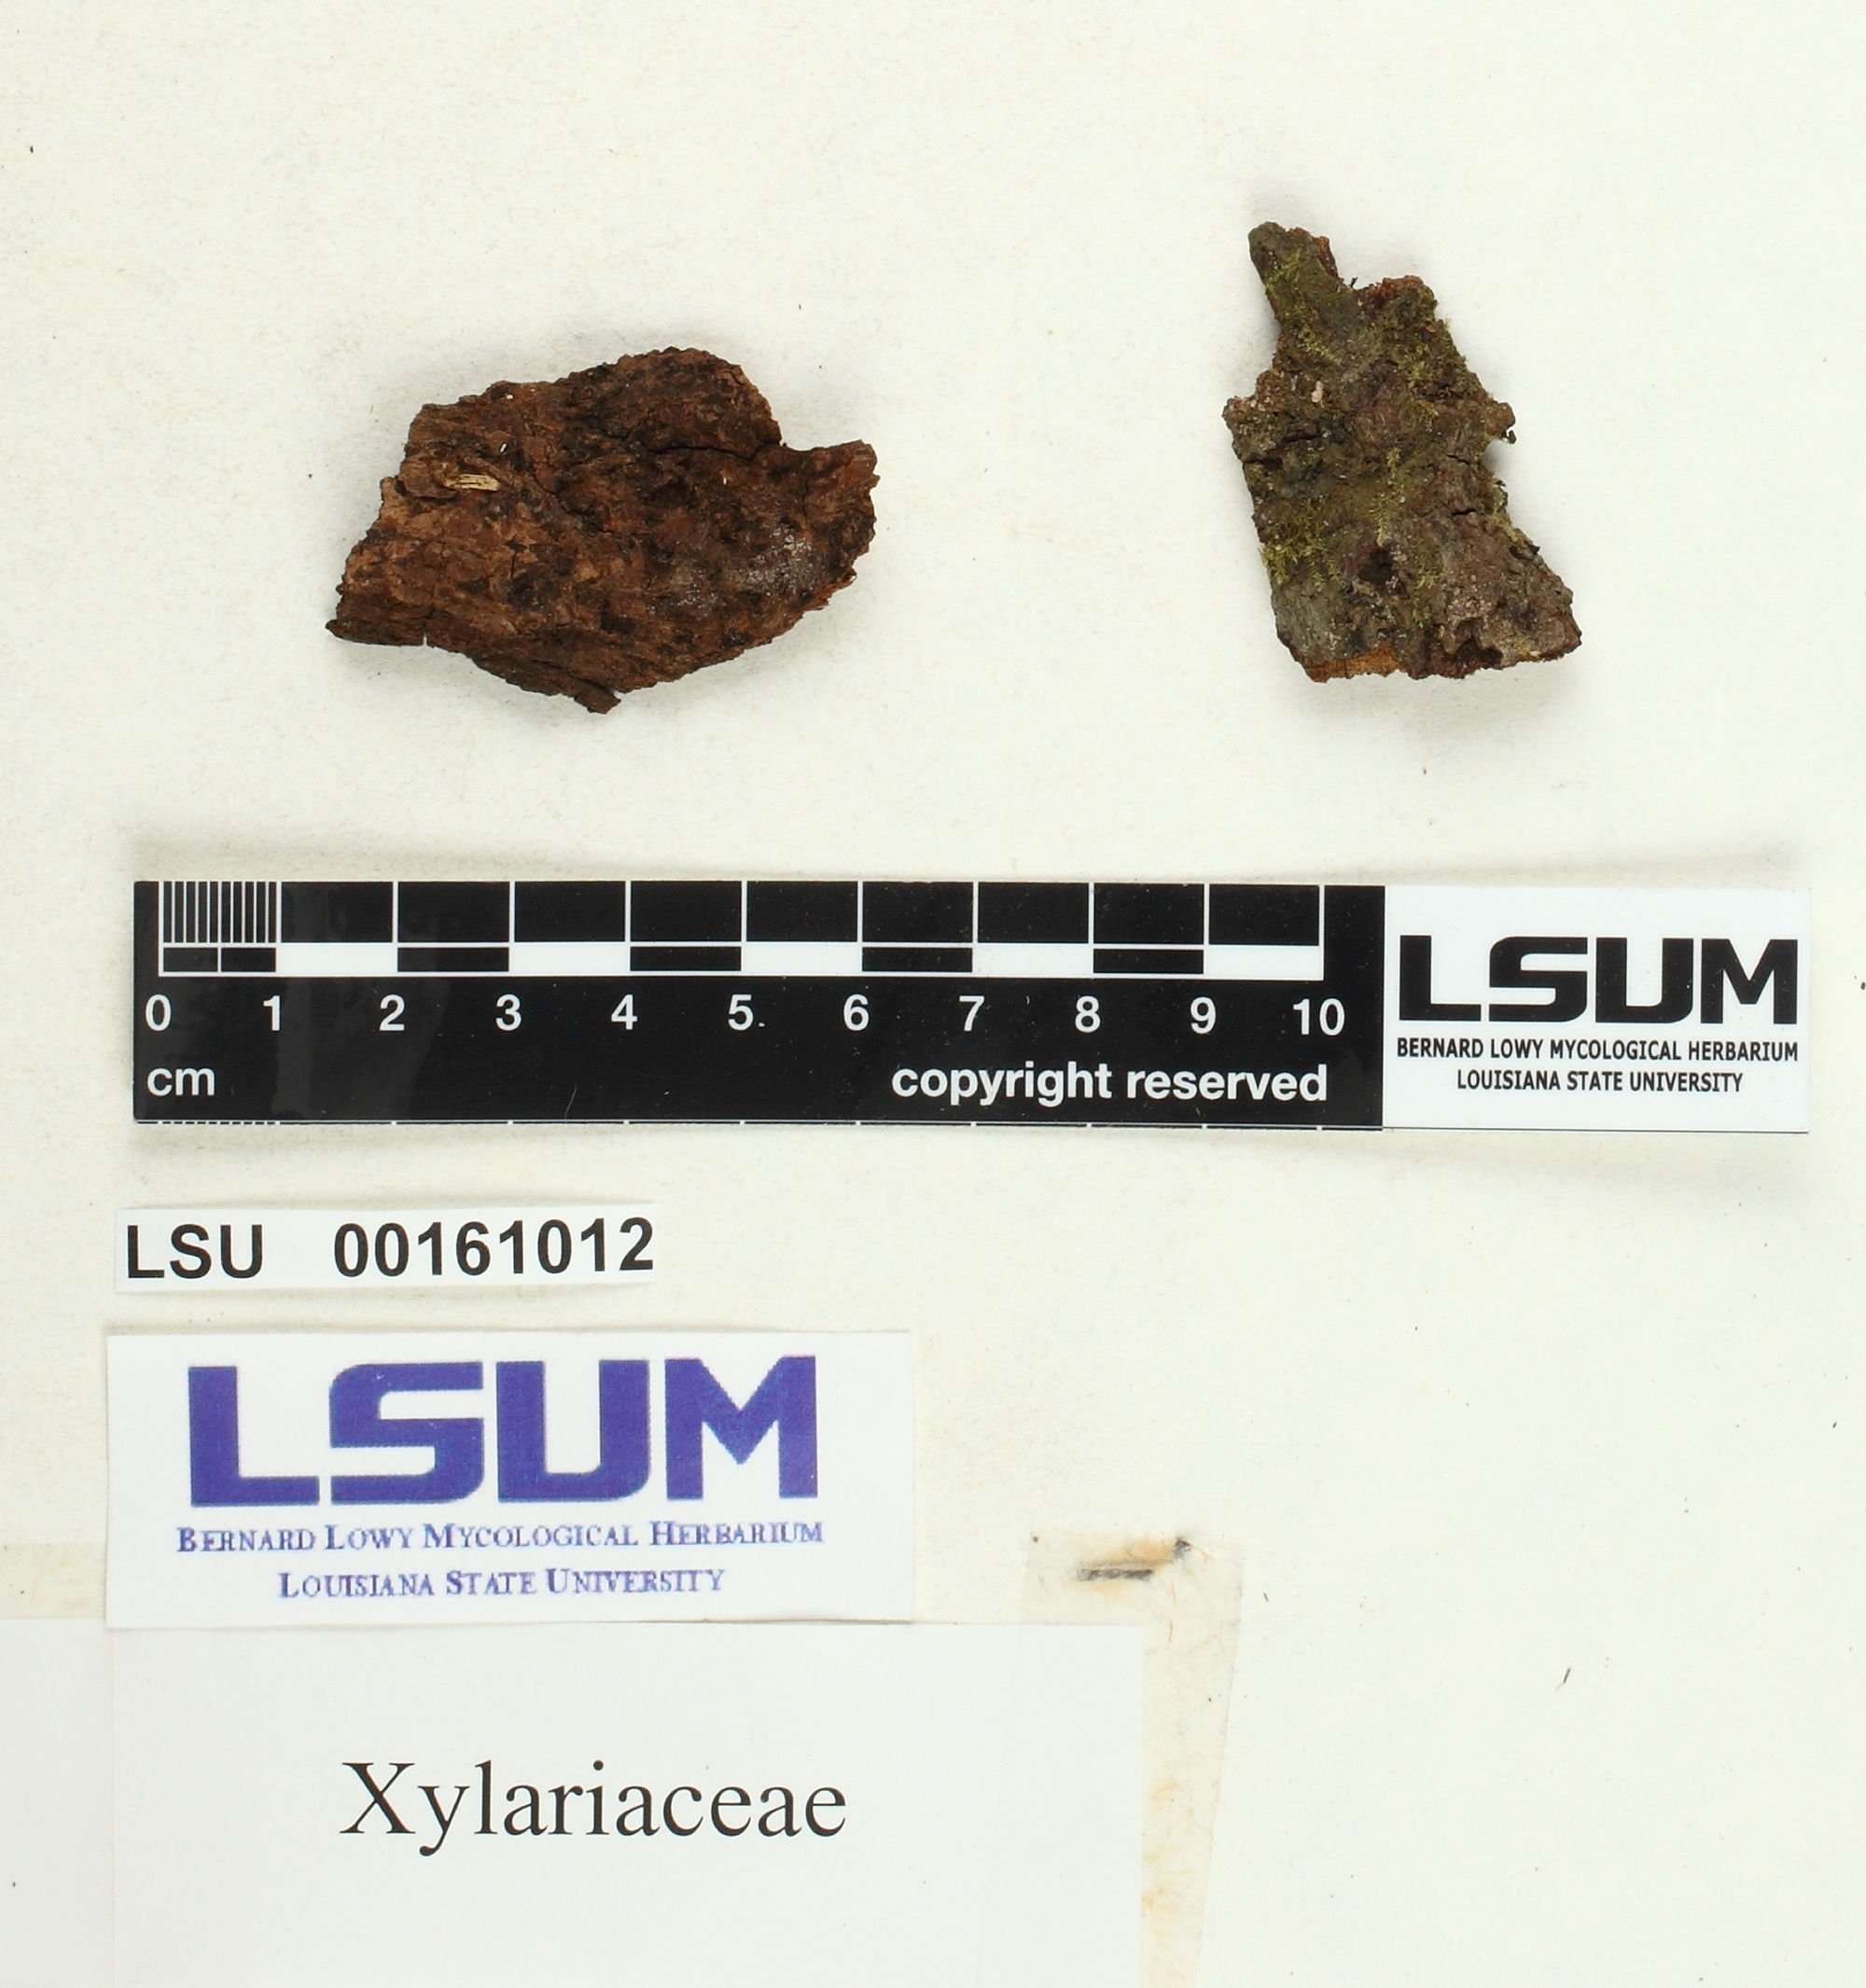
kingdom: Fungi
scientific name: Fungi
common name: Fungi
